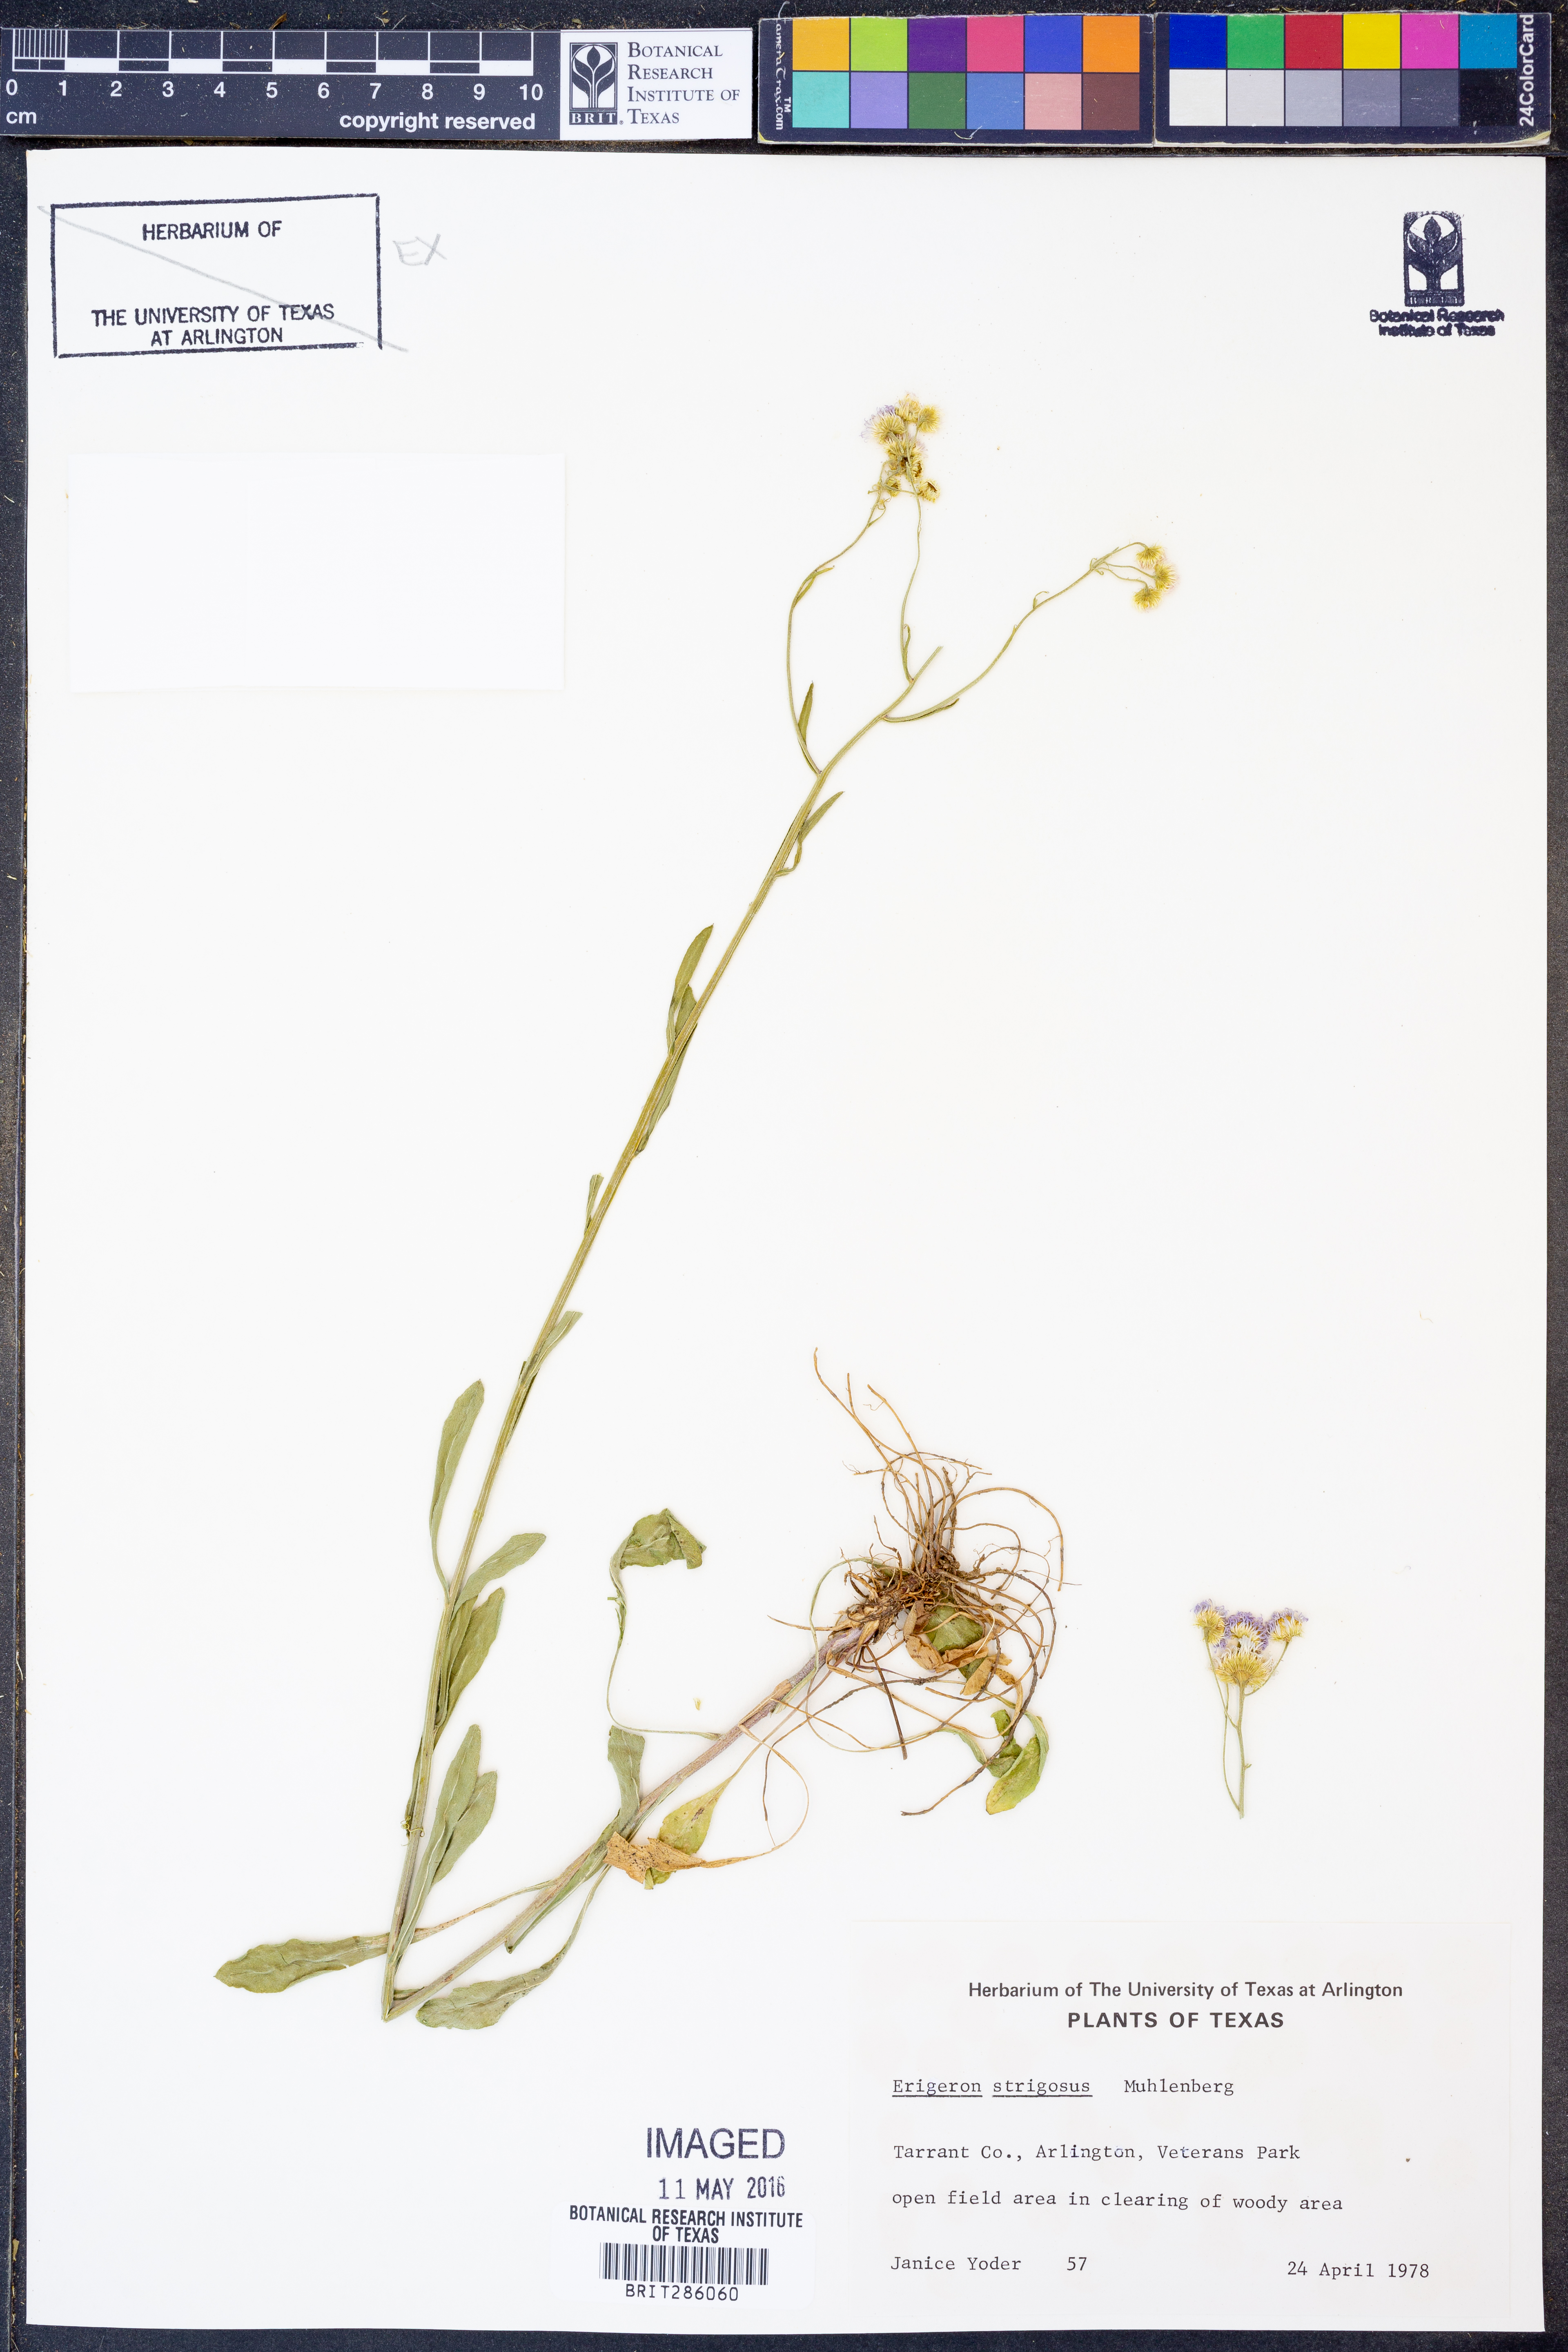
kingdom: Plantae
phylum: Tracheophyta
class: Magnoliopsida
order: Asterales
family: Asteraceae
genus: Erigeron
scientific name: Erigeron strigosus
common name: Common eastern fleabane
